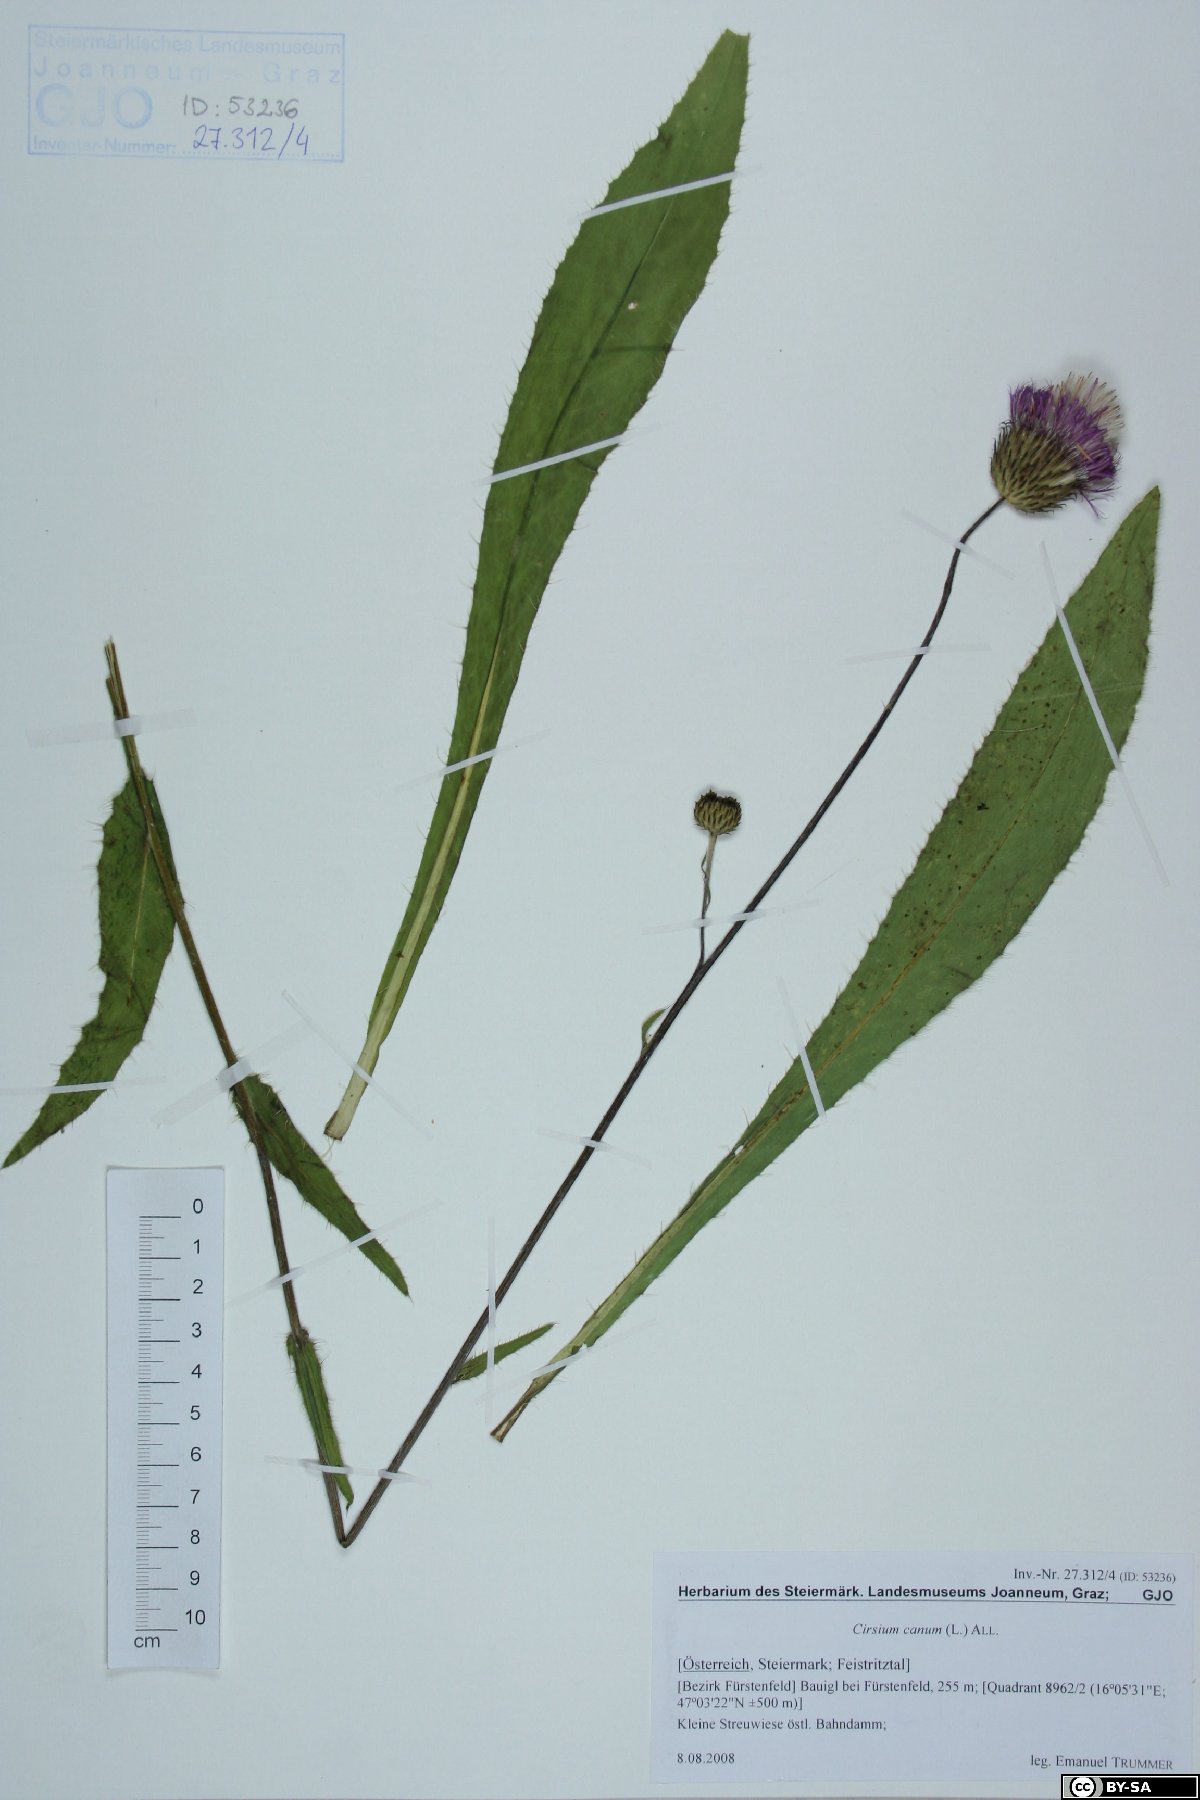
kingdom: Plantae
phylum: Tracheophyta
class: Magnoliopsida
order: Asterales
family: Asteraceae
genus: Cirsium
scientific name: Cirsium canum
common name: Queen anne's thistle
